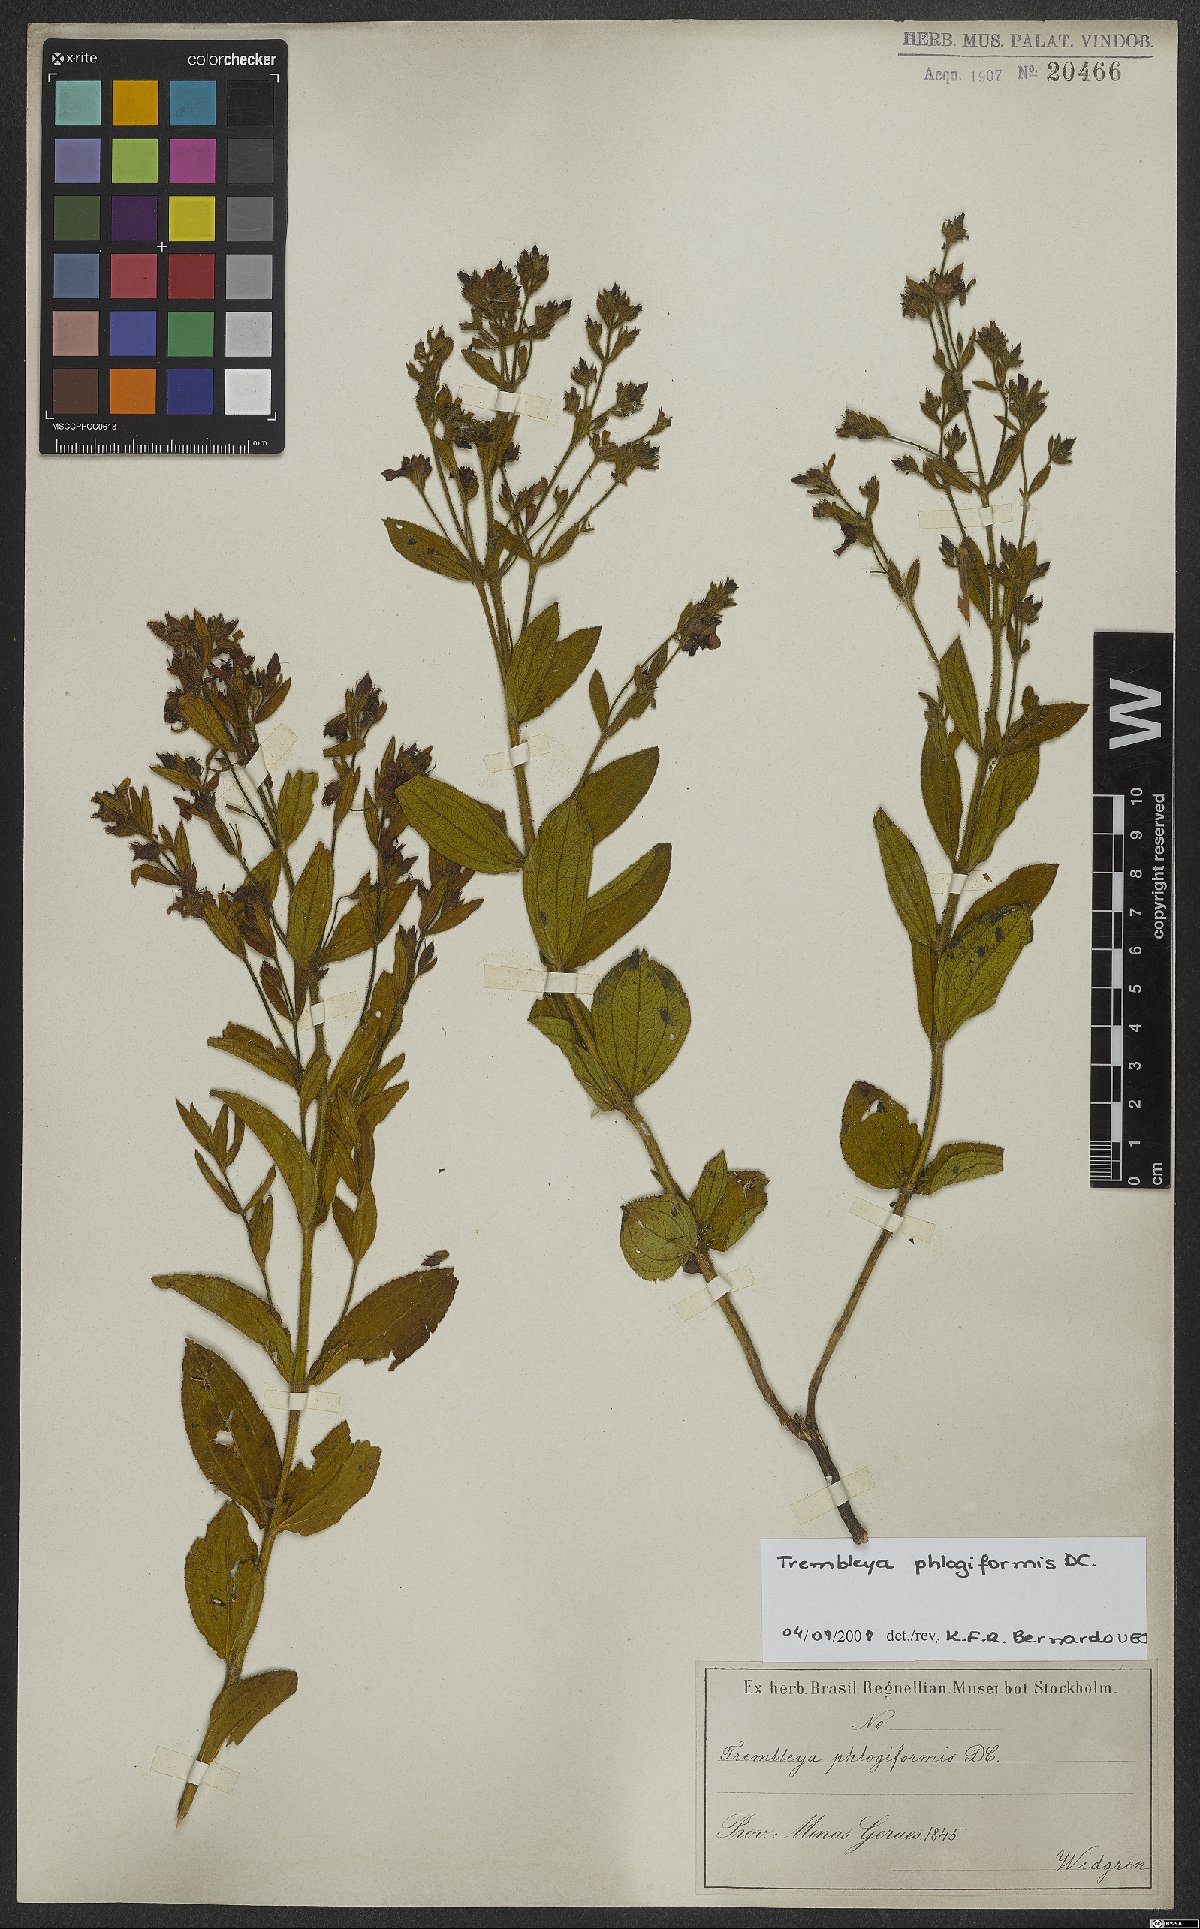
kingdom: Plantae
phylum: Tracheophyta
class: Magnoliopsida
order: Myrtales
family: Melastomataceae
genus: Microlicia
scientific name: Microlicia phlogiformis
